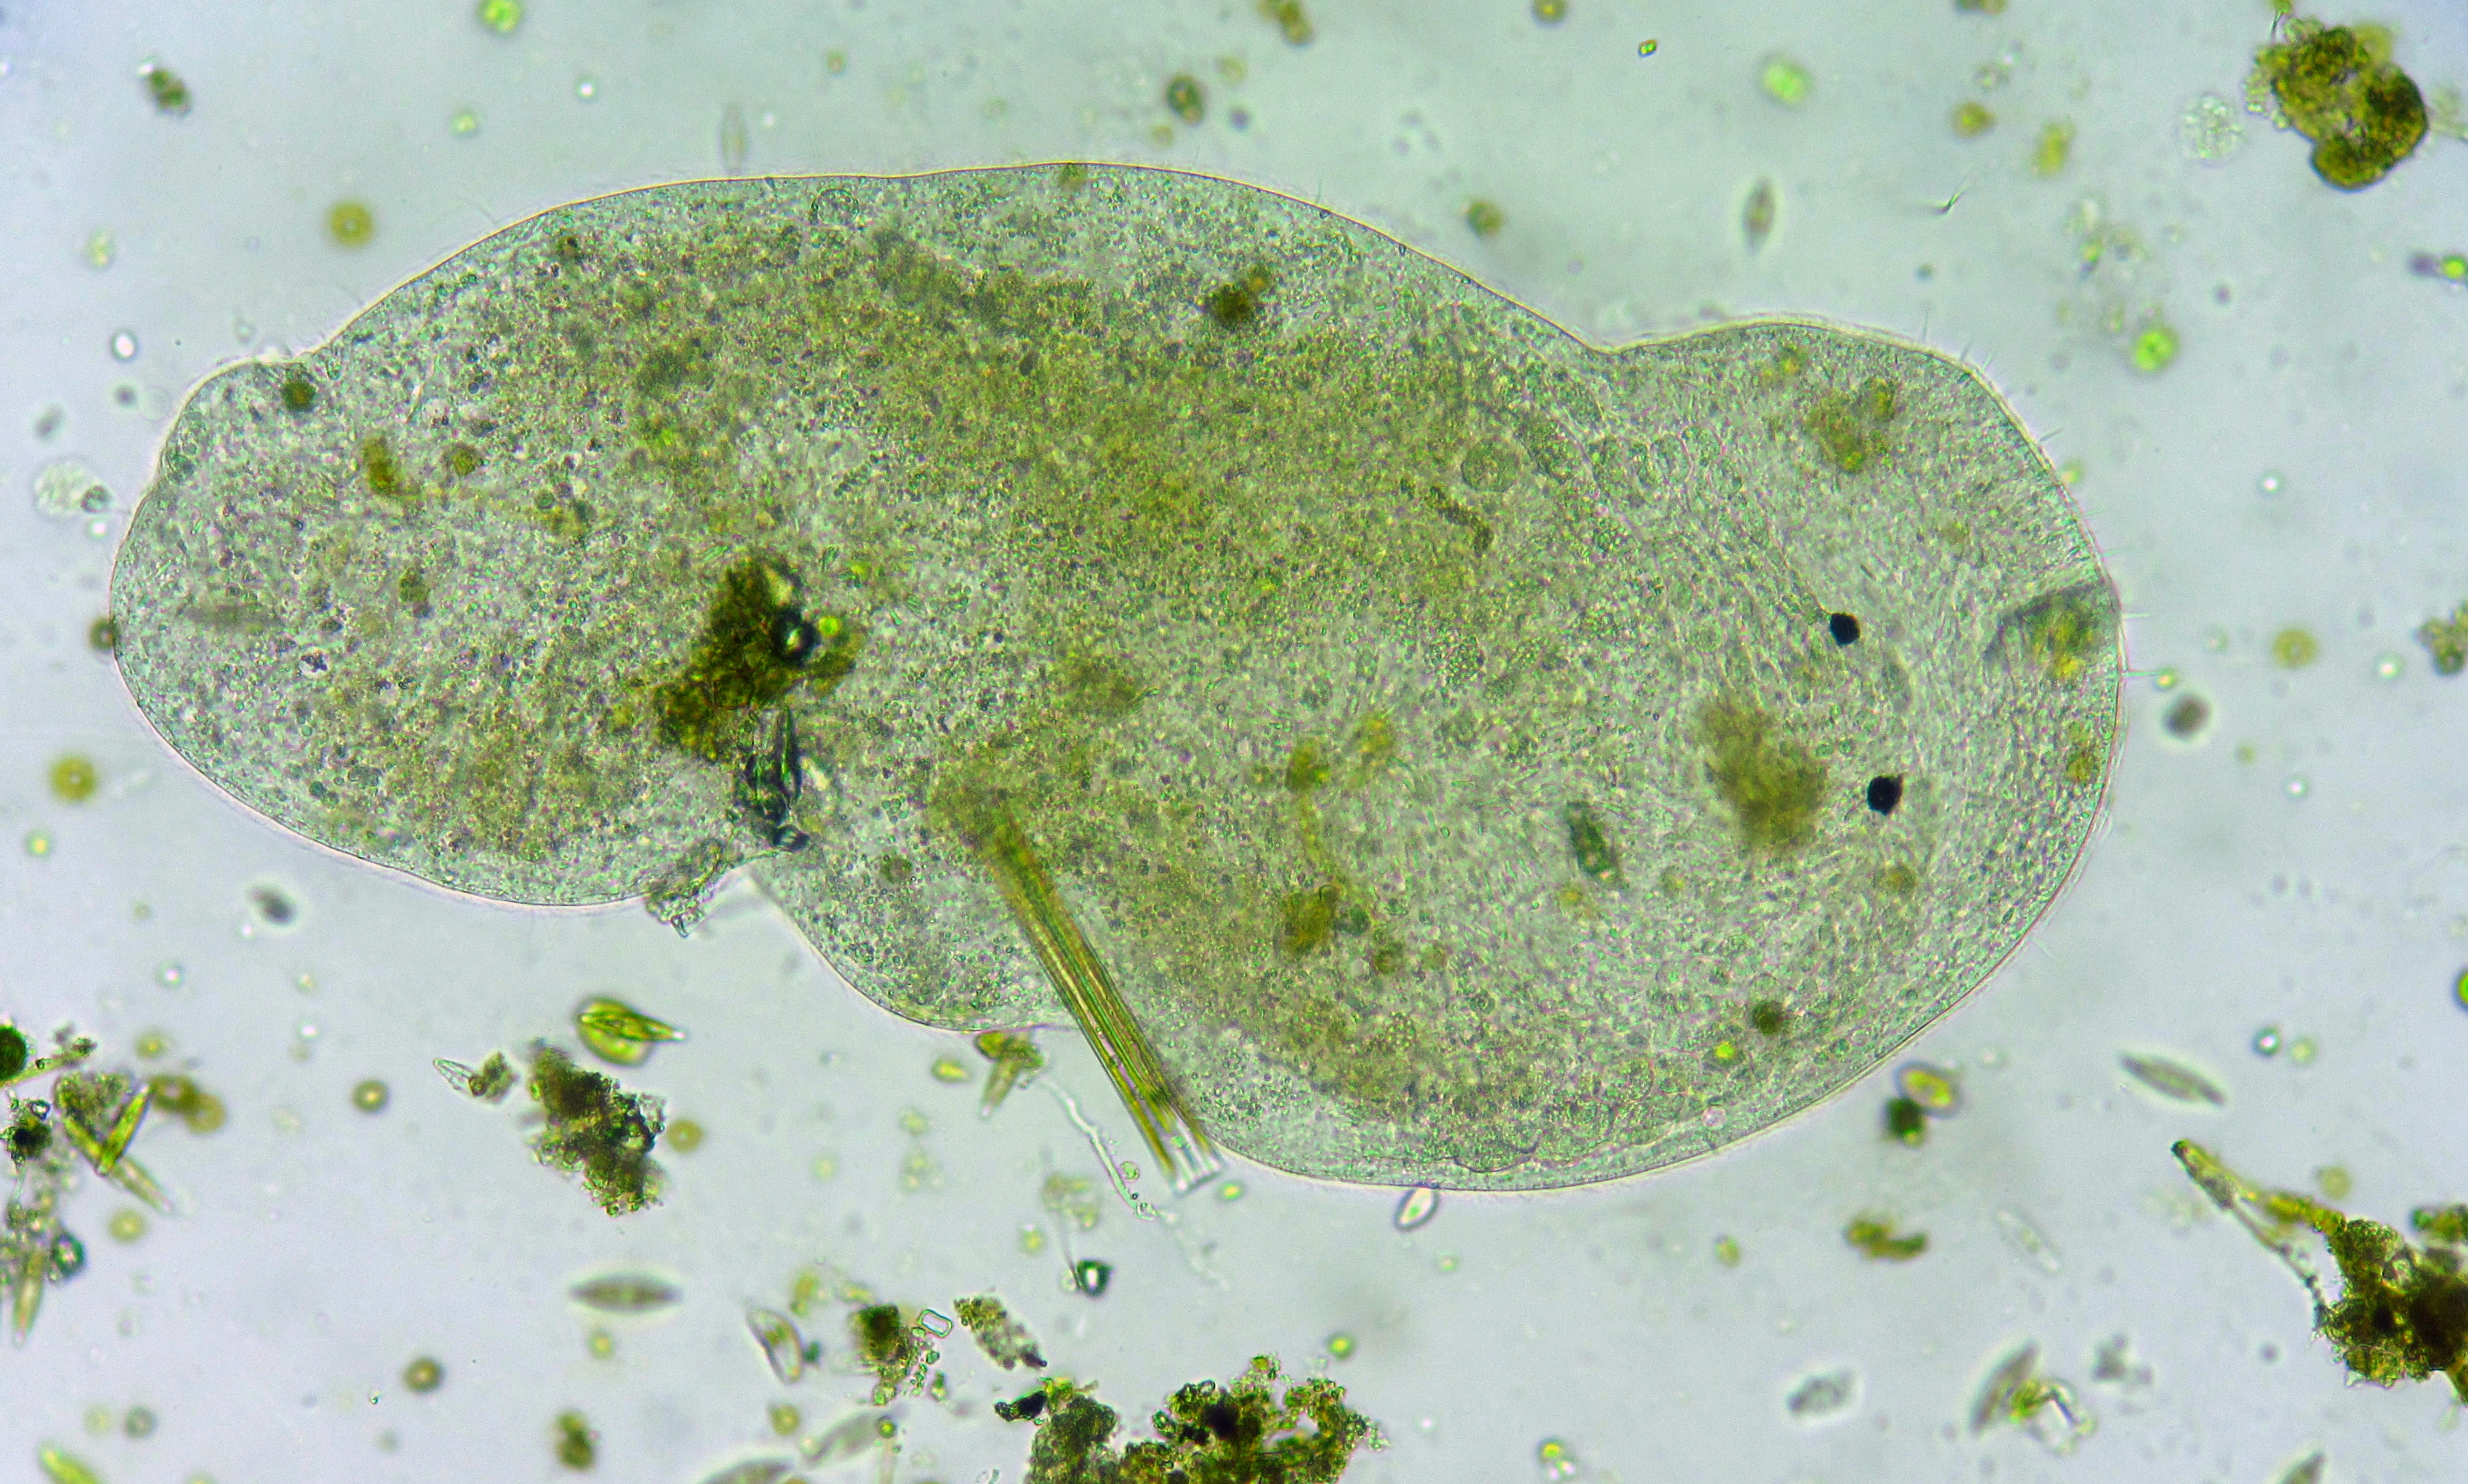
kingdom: Animalia
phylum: Platyhelminthes
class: Turbellaria
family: Macrostomidae
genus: Macrostomum
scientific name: Macrostomum
